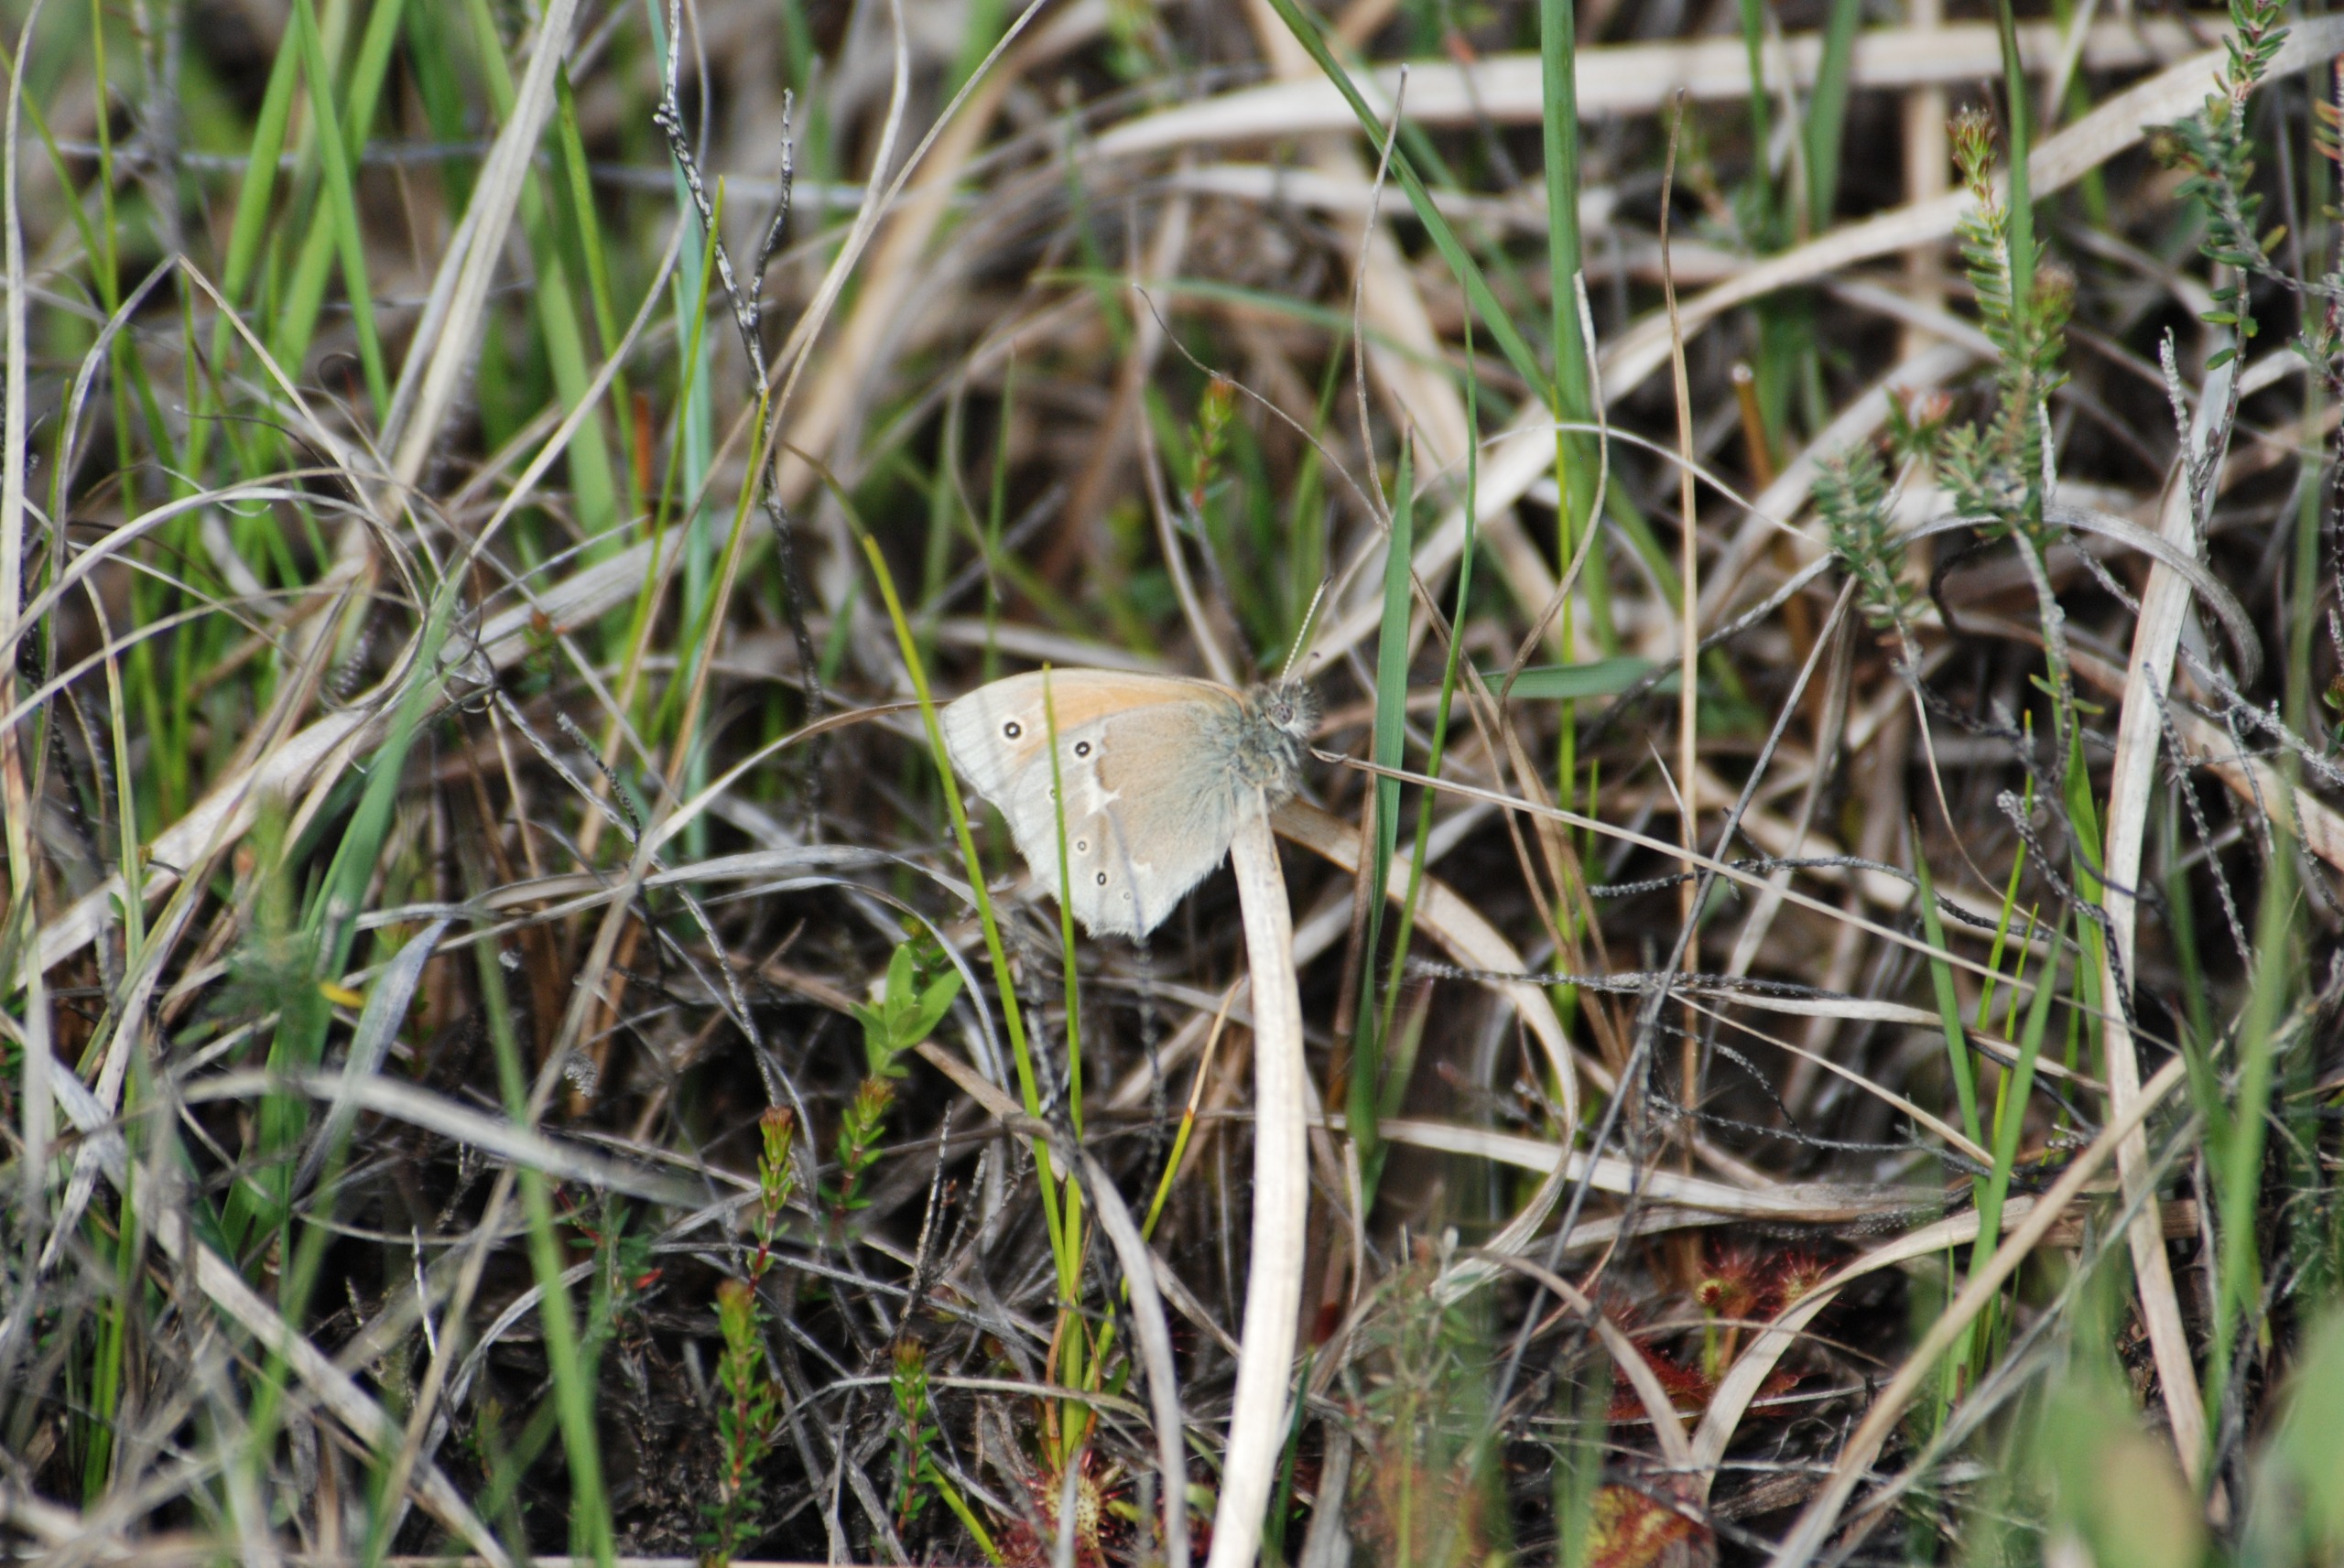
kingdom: Animalia
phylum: Arthropoda
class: Insecta
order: Lepidoptera
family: Nymphalidae
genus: Coenonympha
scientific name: Coenonympha tullia
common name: Moserandøje
